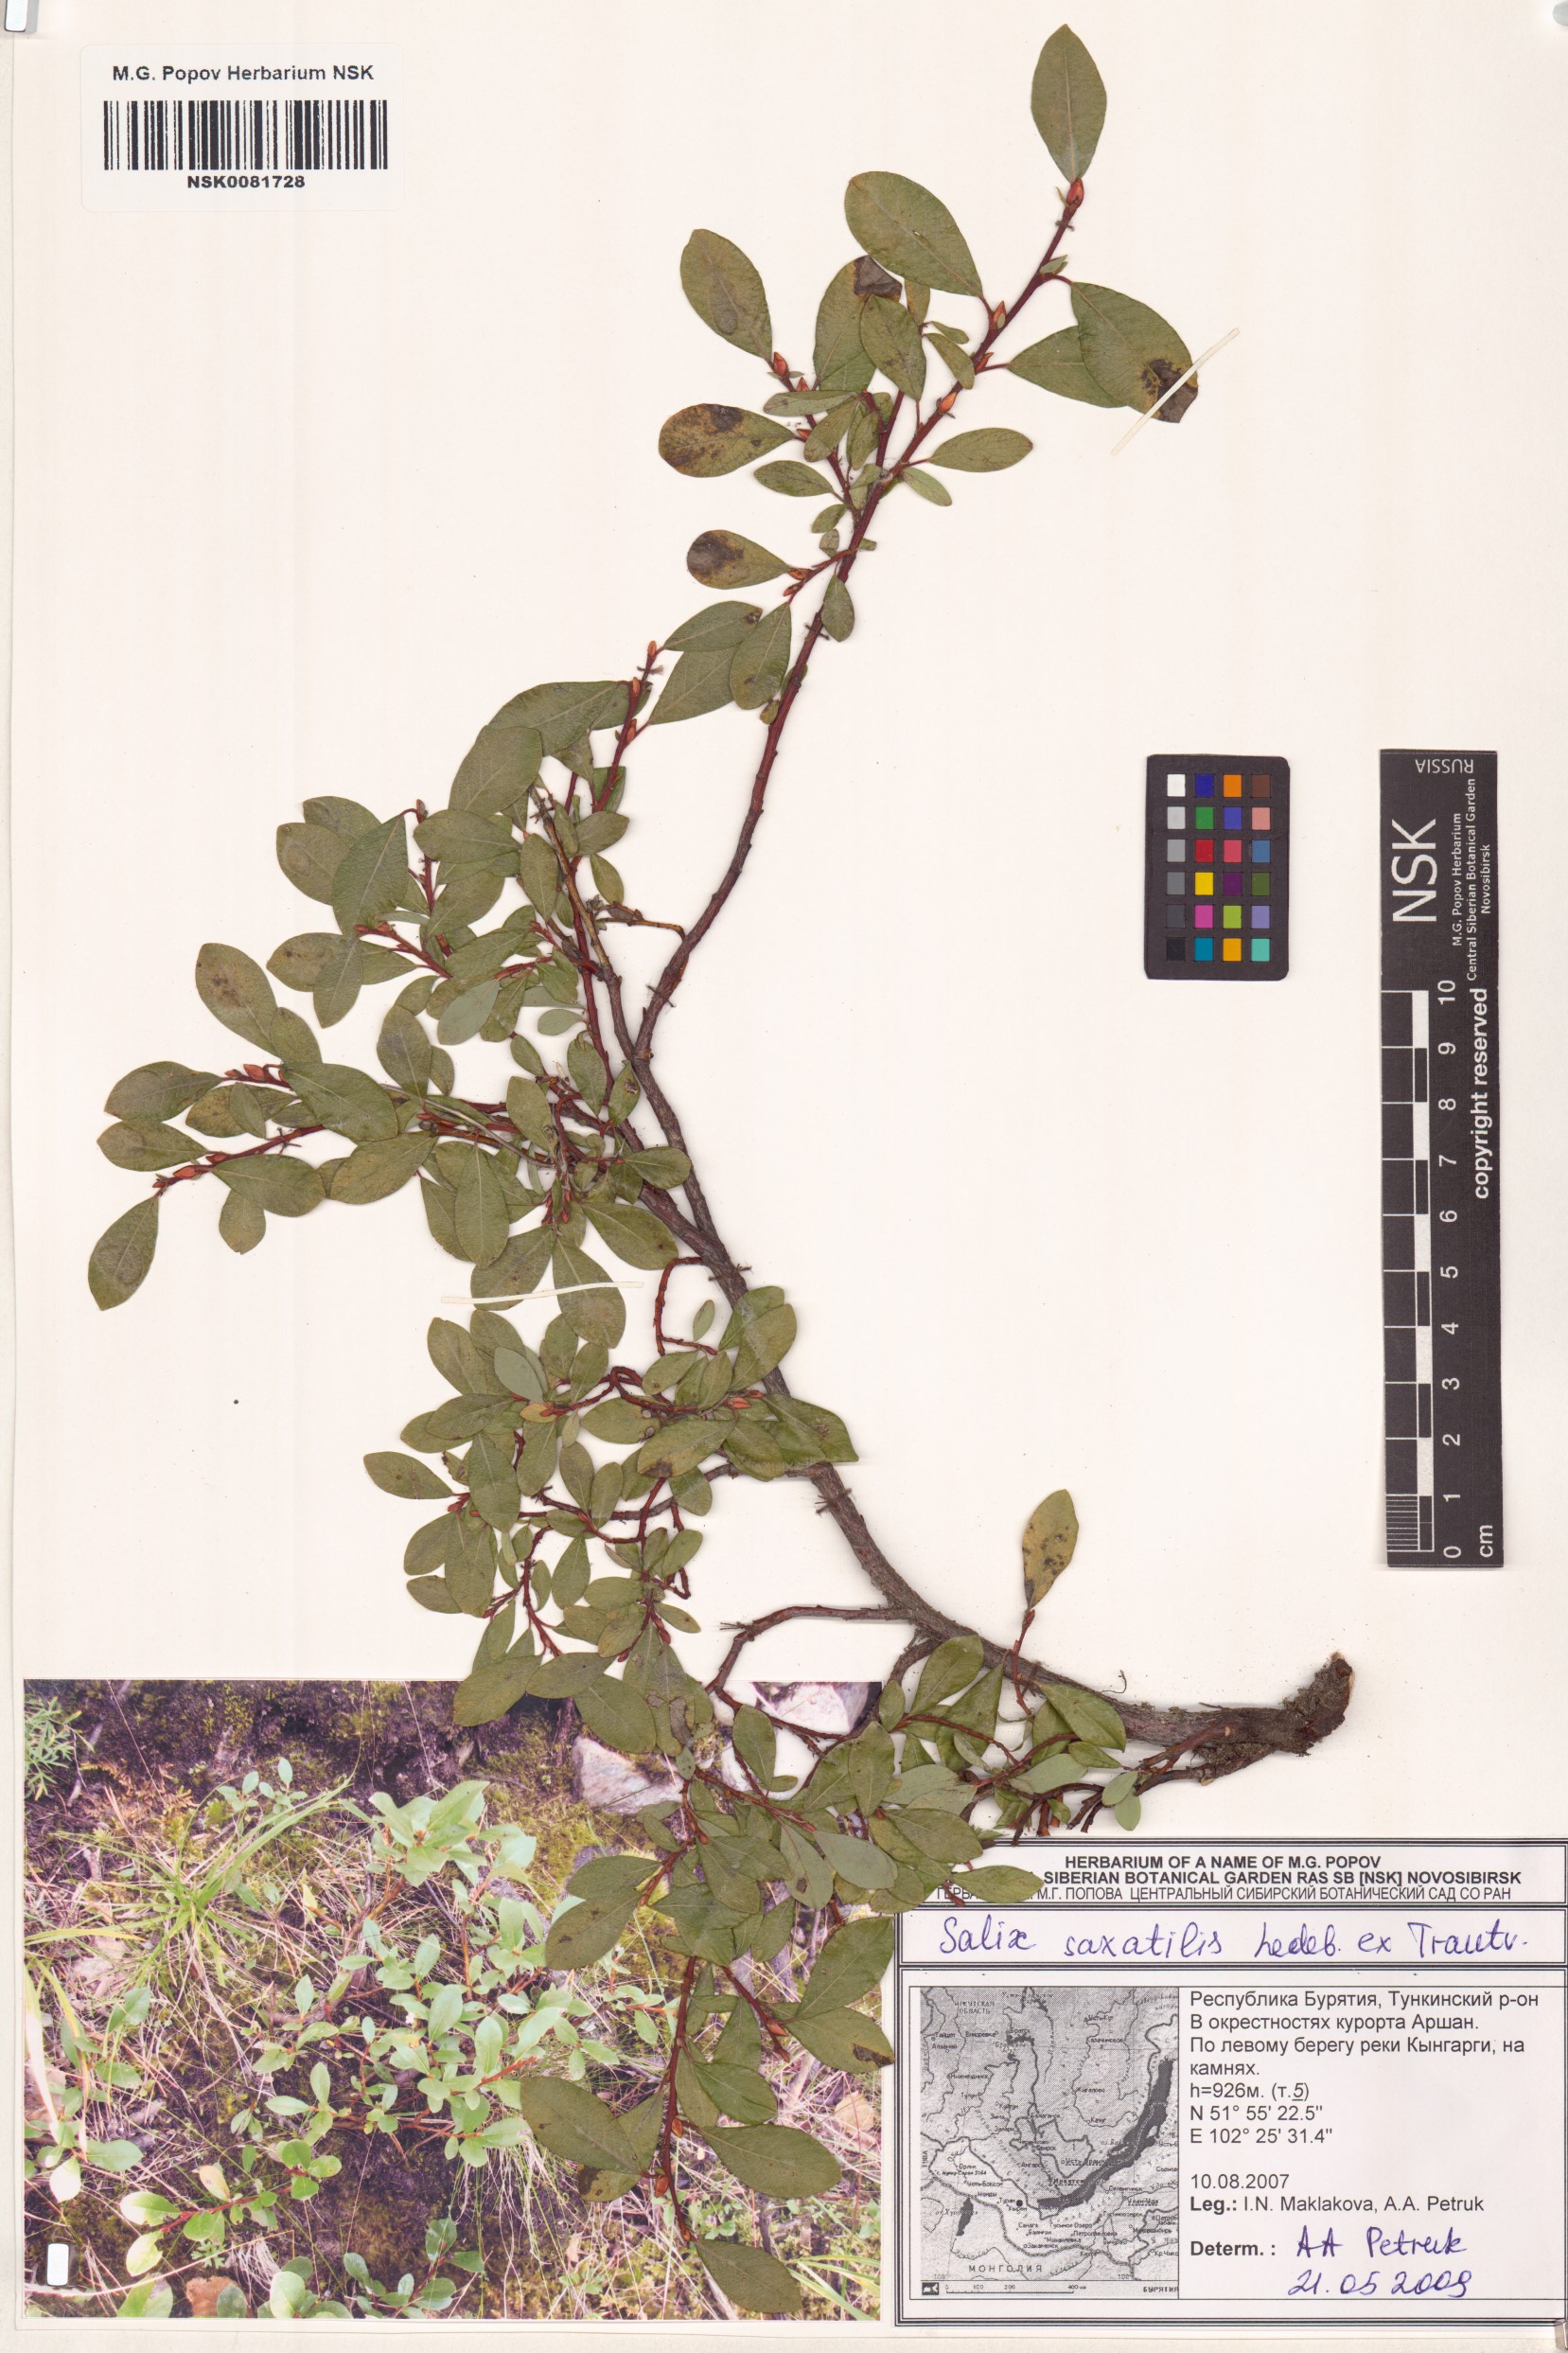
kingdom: Plantae
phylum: Tracheophyta
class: Magnoliopsida
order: Malpighiales
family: Salicaceae
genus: Salix
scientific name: Salix saxatilis
